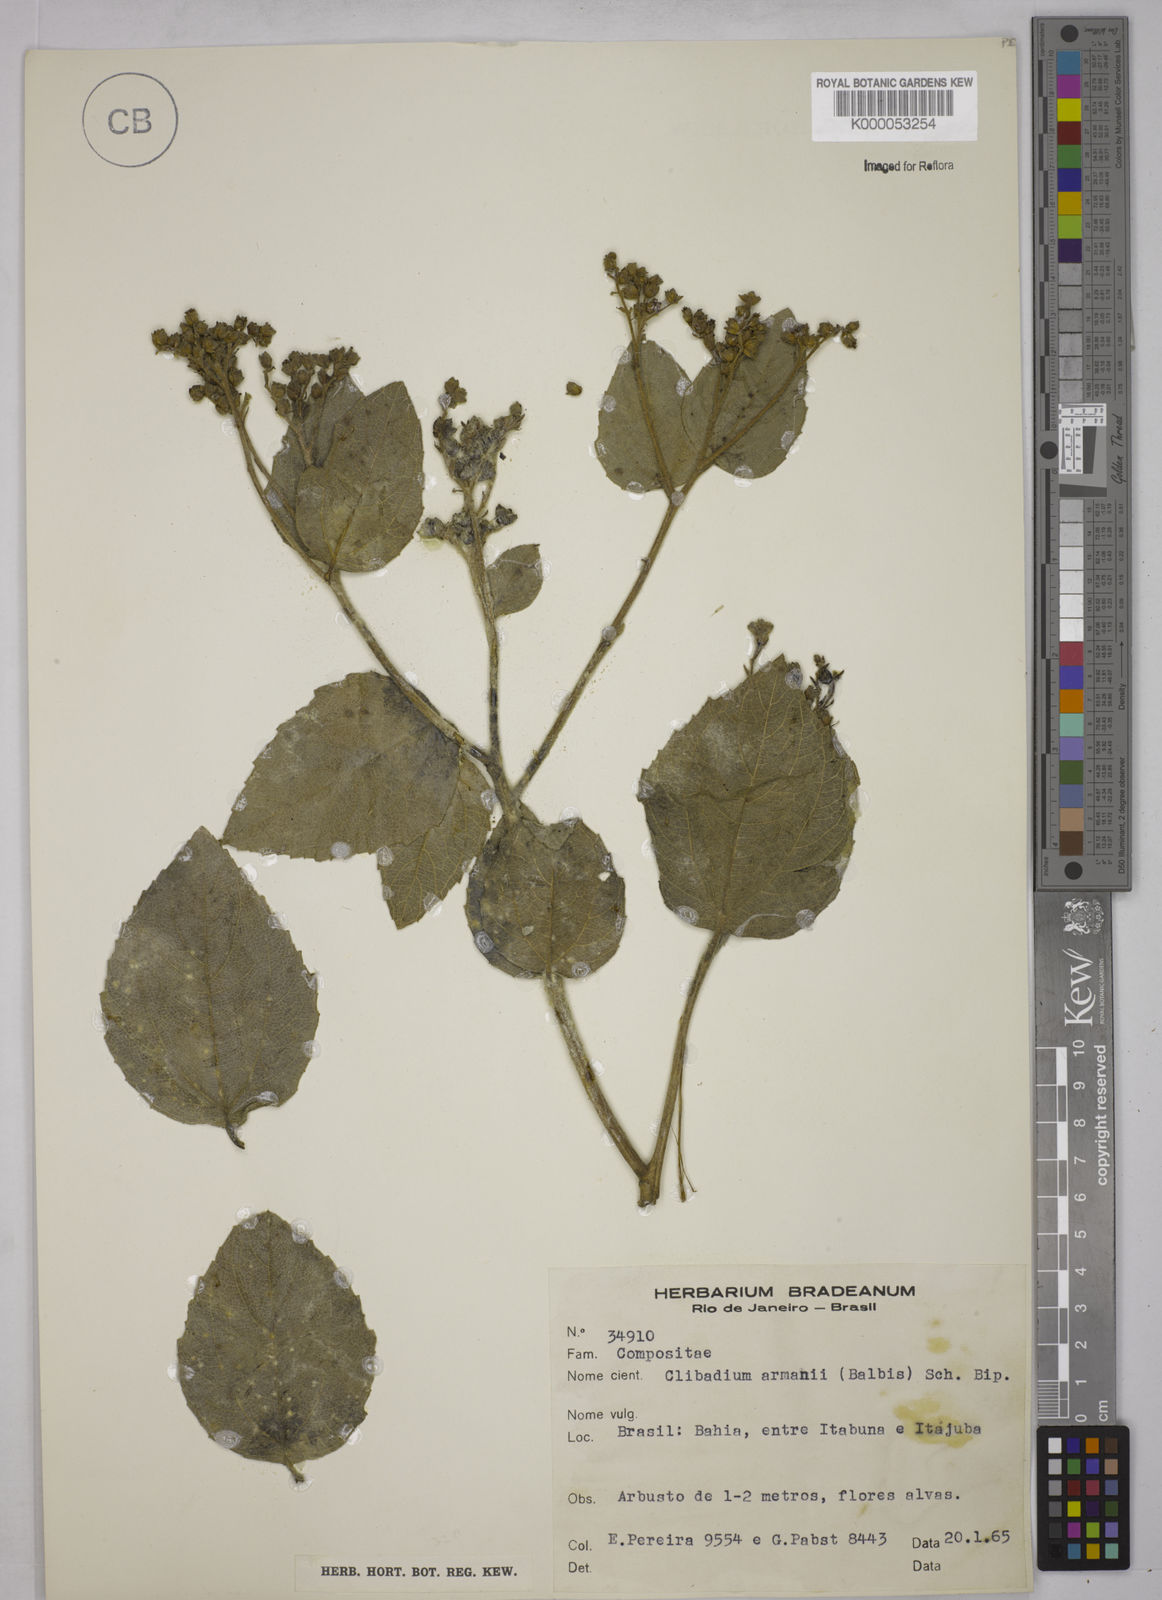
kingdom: Plantae
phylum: Tracheophyta
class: Magnoliopsida
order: Asterales
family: Asteraceae
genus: Clibadium
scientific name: Clibadium armanii
